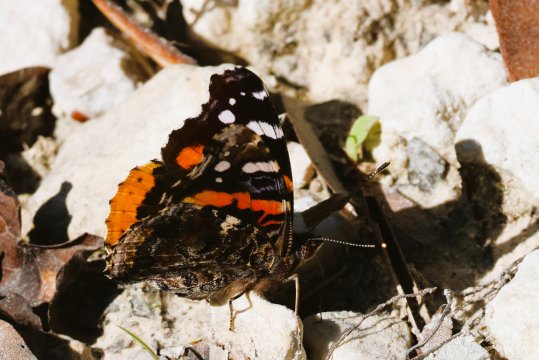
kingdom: Animalia
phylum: Arthropoda
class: Insecta
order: Lepidoptera
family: Nymphalidae
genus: Vanessa
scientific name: Vanessa atalanta
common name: Red Admiral
